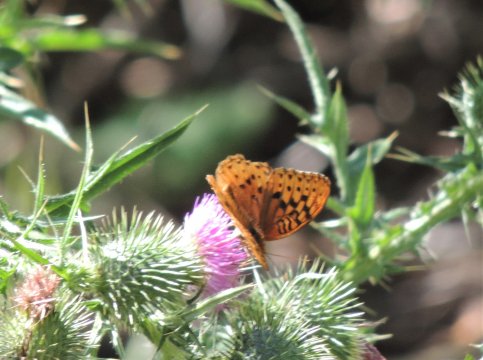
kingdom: Animalia
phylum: Arthropoda
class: Insecta
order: Lepidoptera
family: Nymphalidae
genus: Speyeria
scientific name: Speyeria cybele
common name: Great Spangled Fritillary
